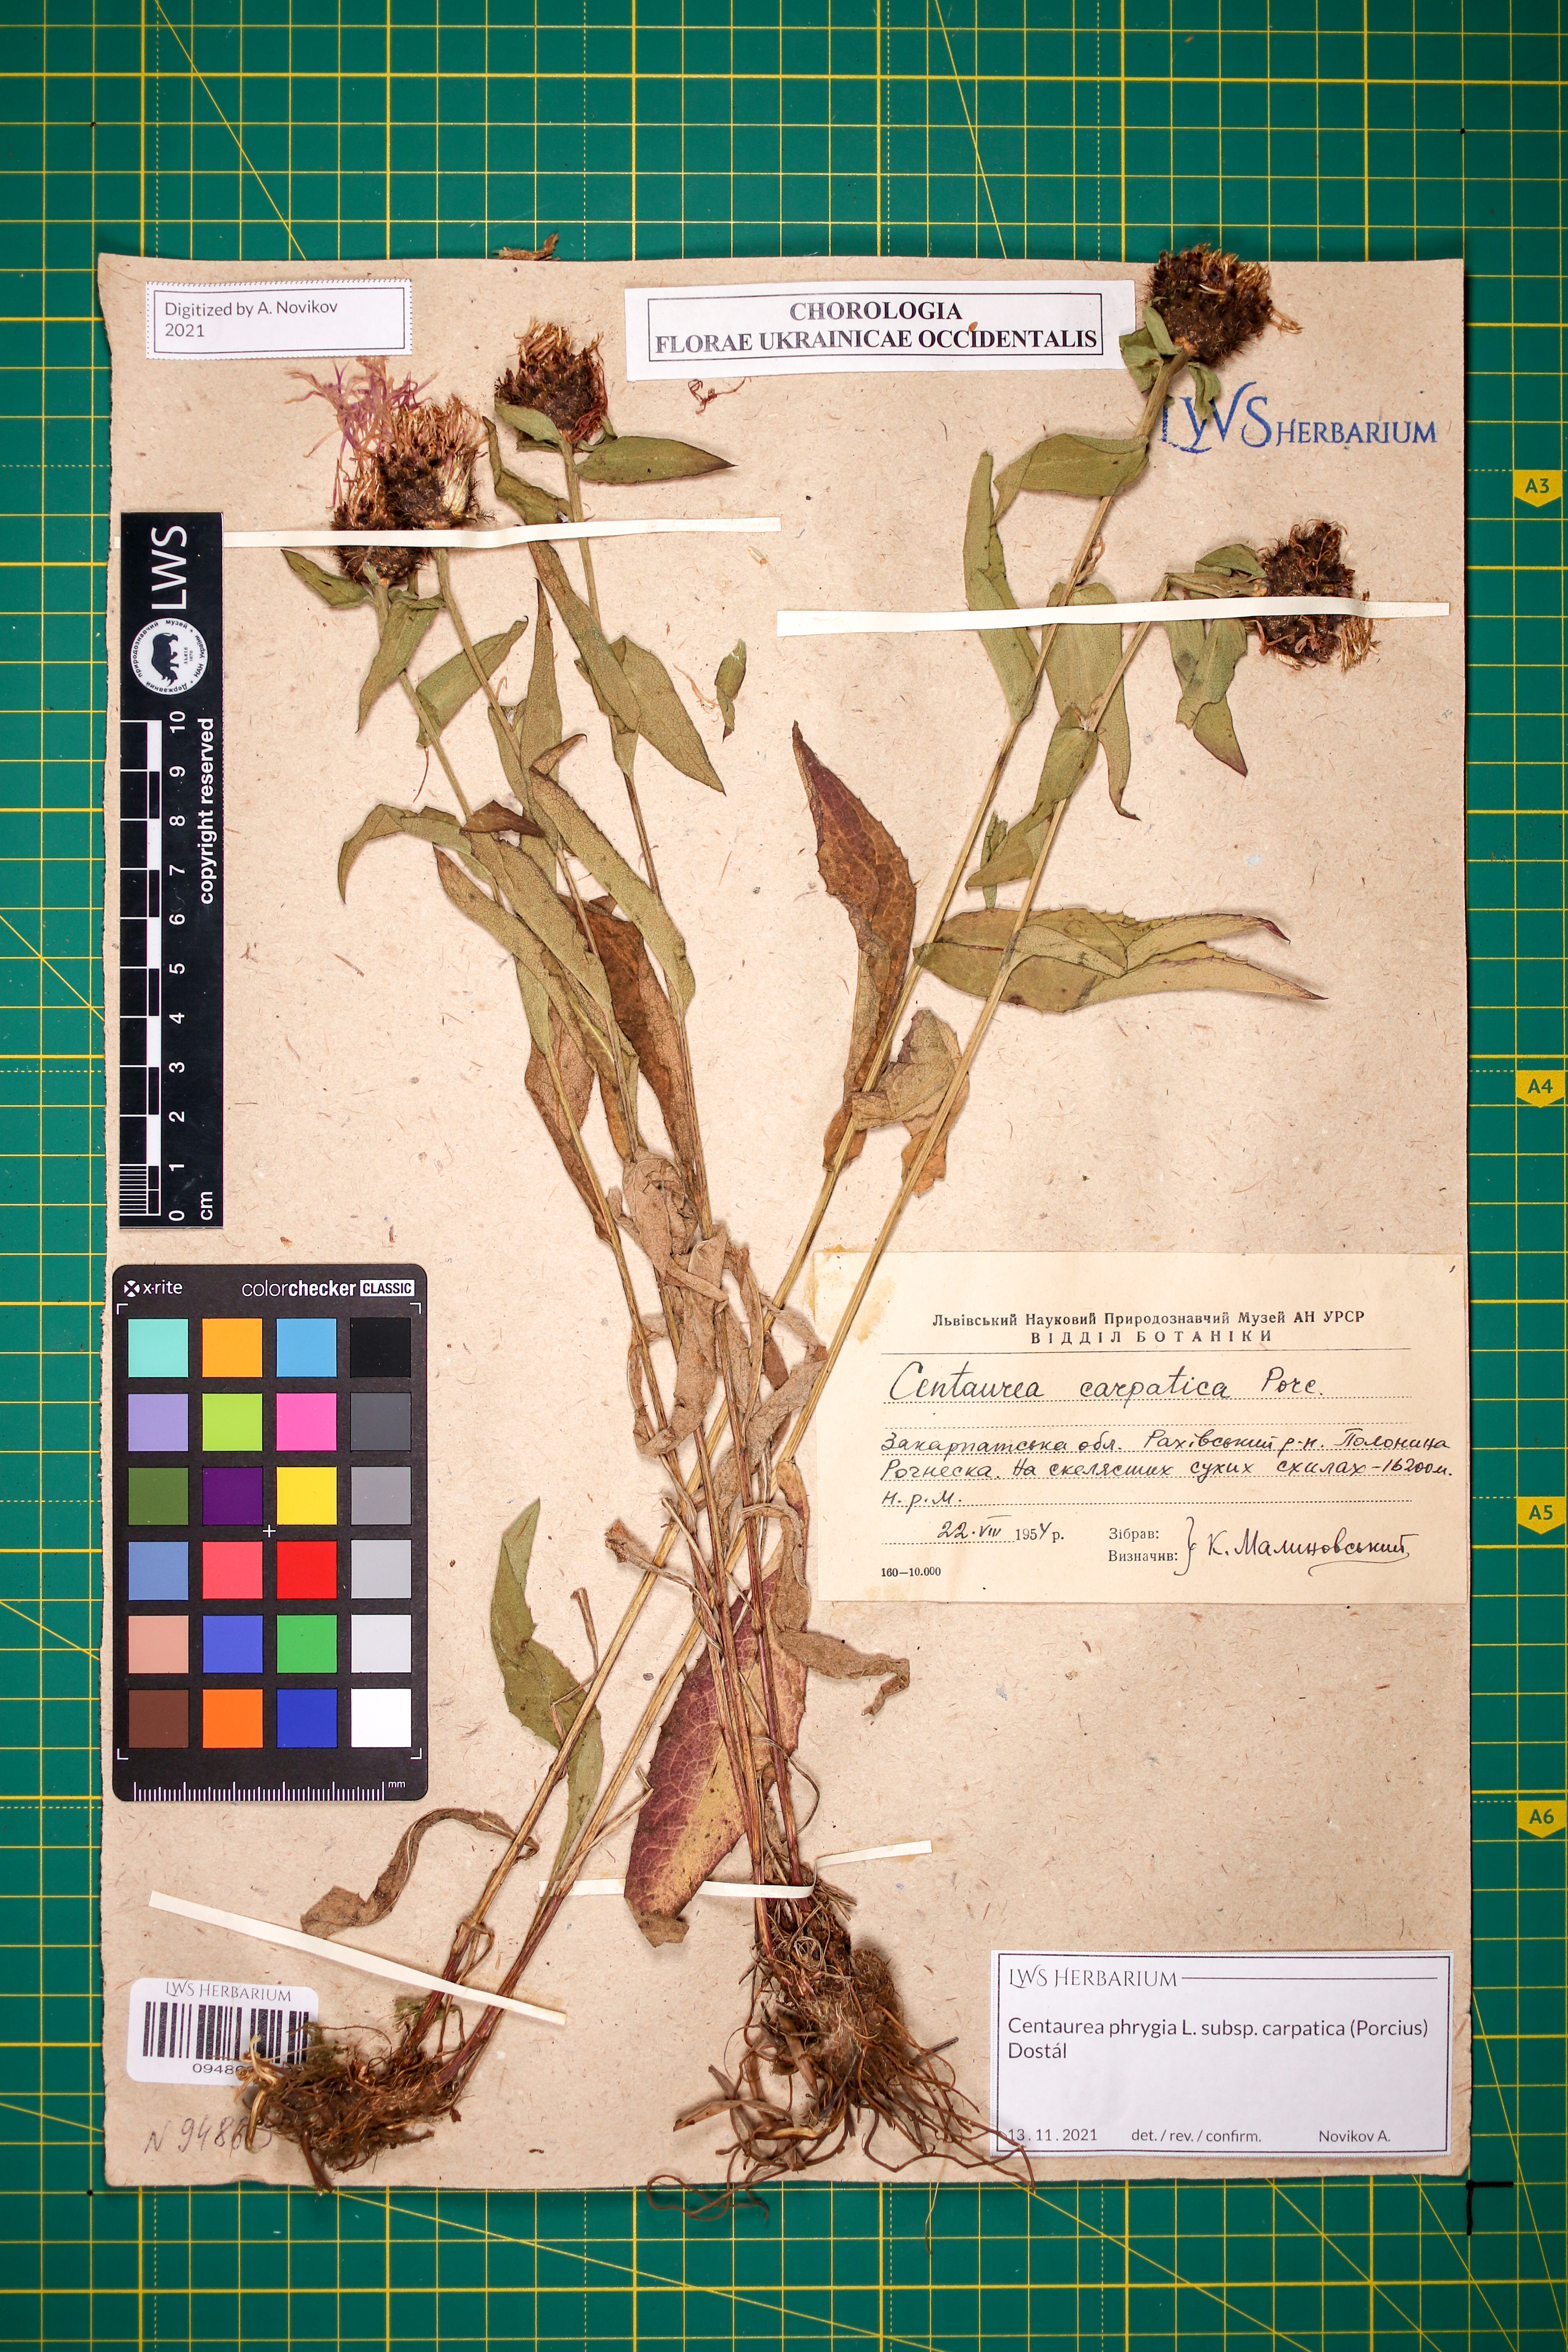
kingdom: Plantae
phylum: Tracheophyta
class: Magnoliopsida
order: Asterales
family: Asteraceae
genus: Centaurea
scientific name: Centaurea phrygia
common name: Wig knapweed
